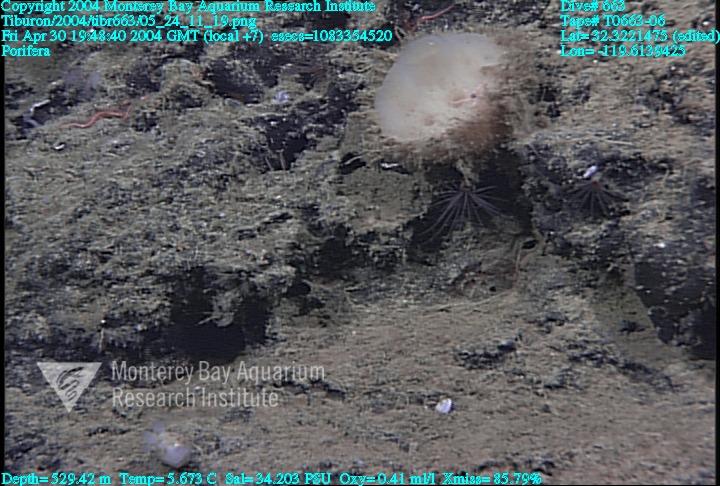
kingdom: Animalia
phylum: Porifera
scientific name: Porifera
